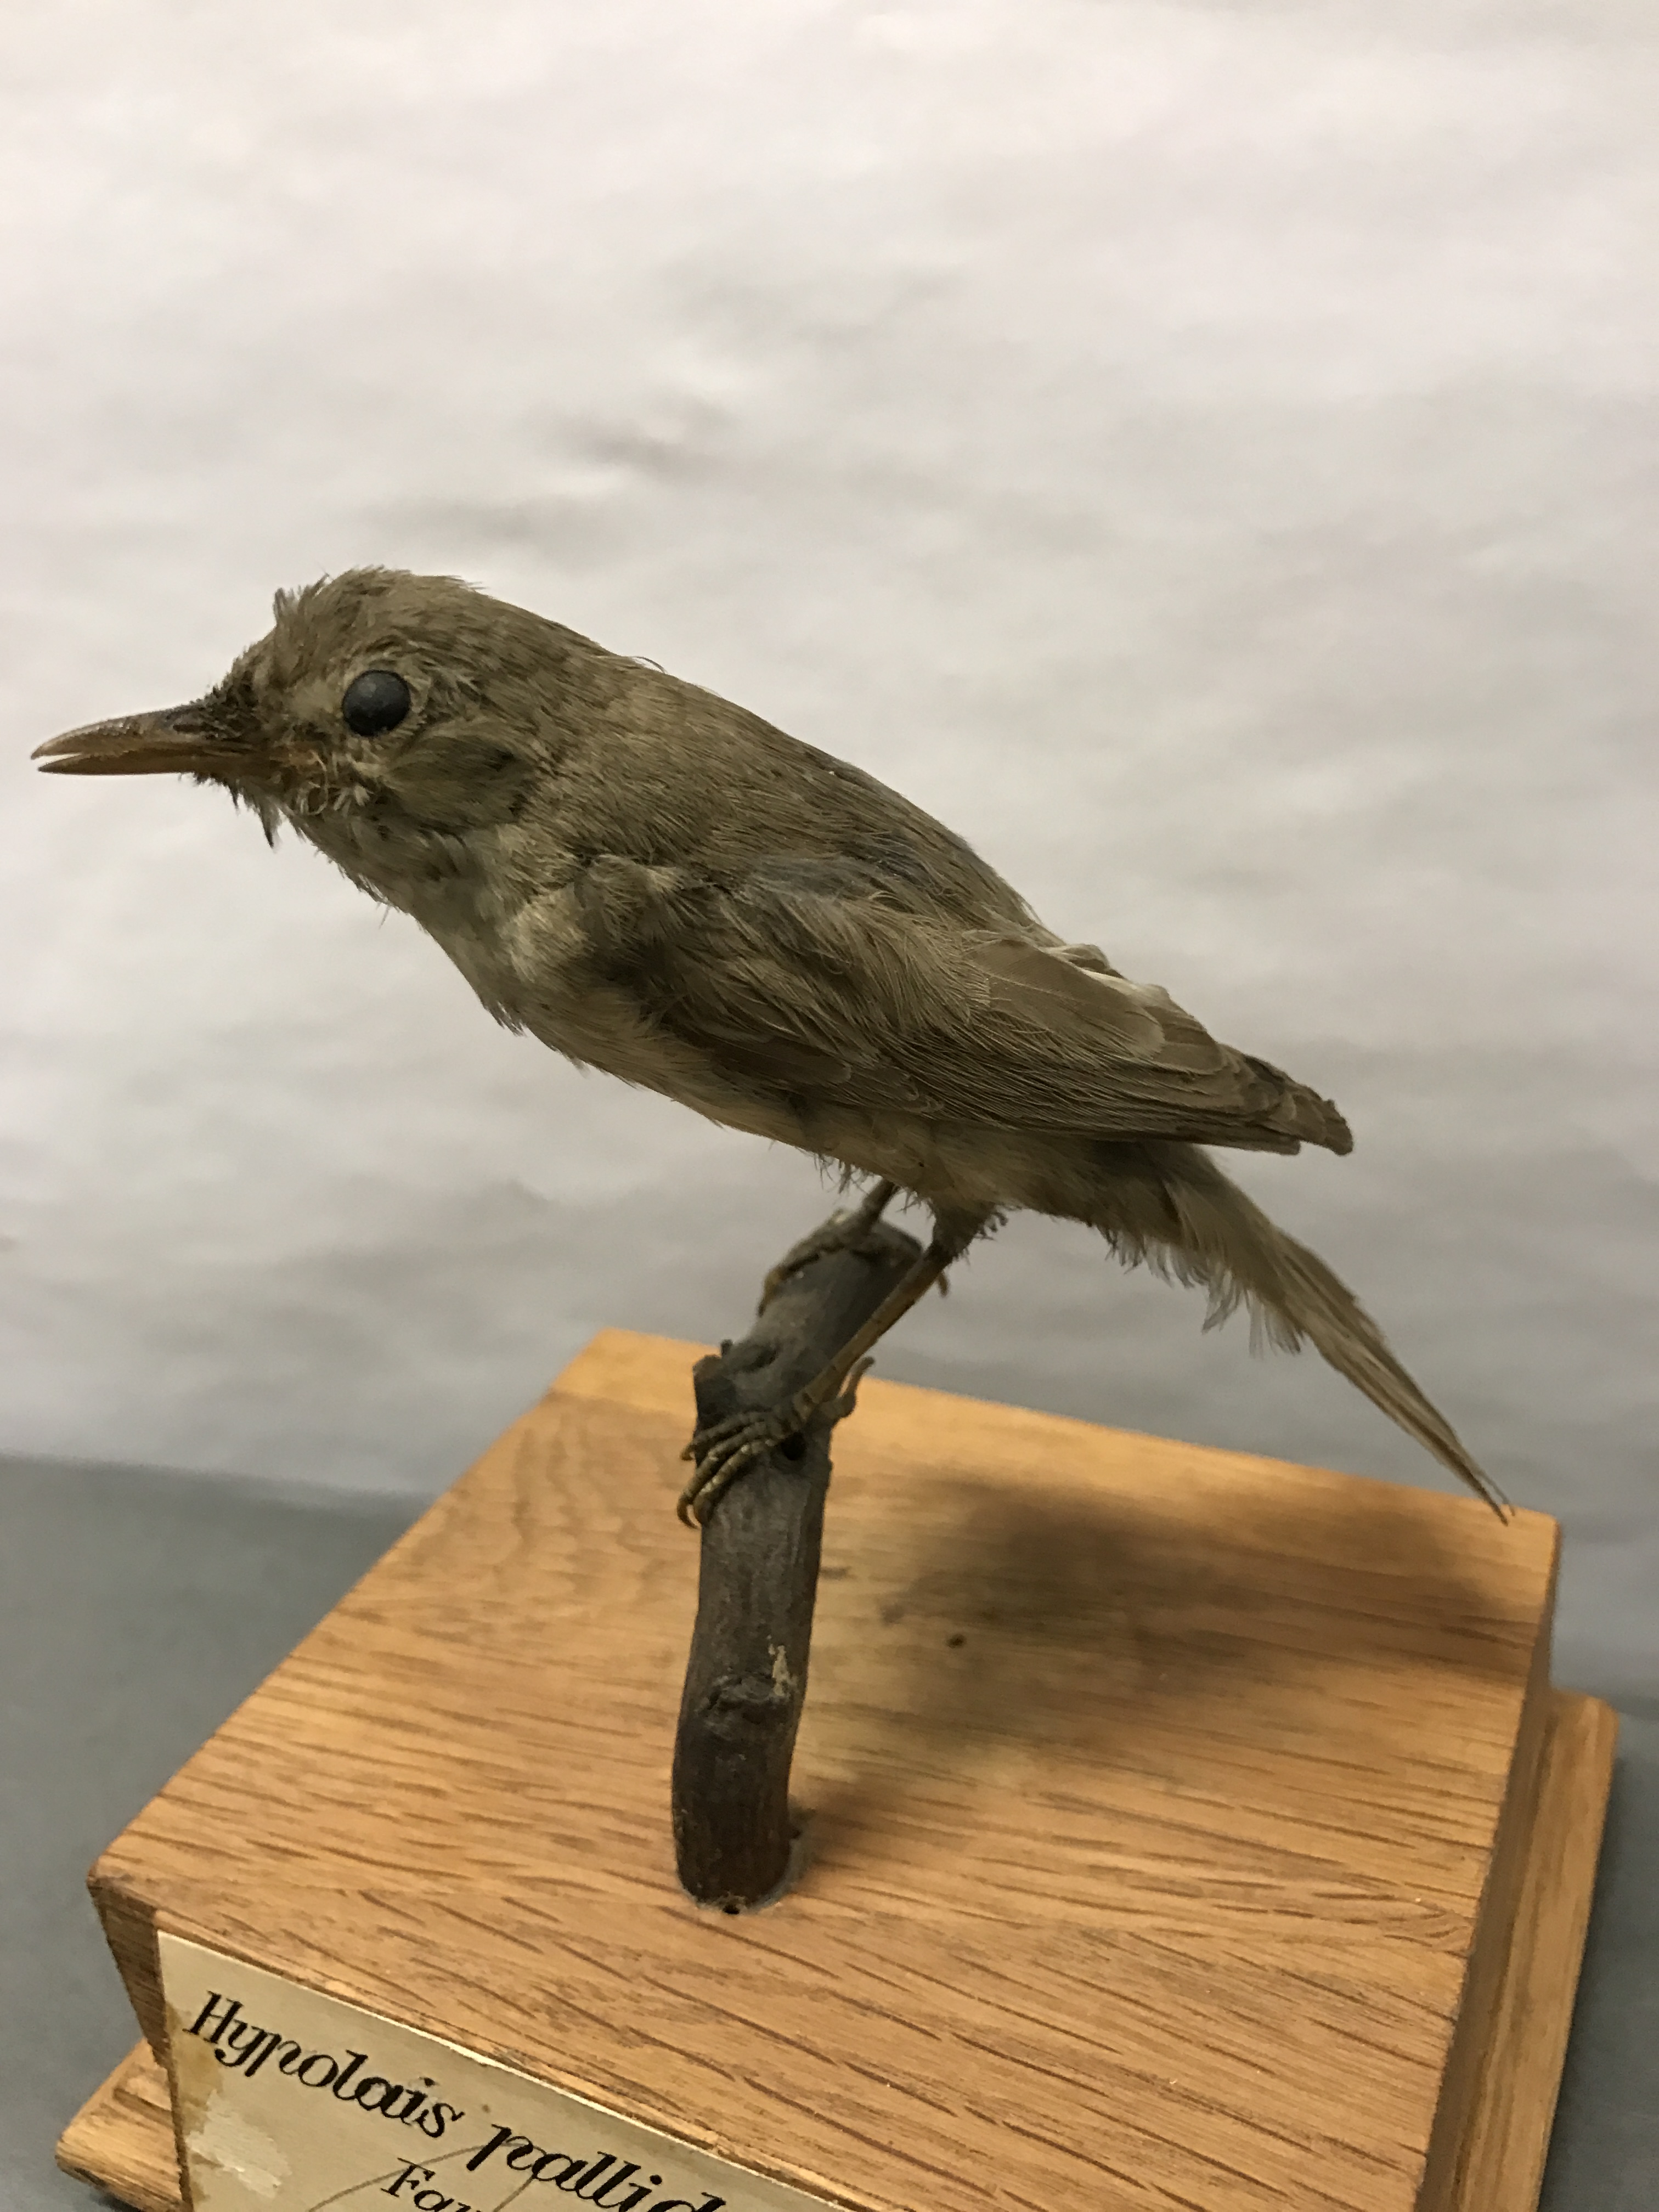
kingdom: Animalia
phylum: Chordata
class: Aves
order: Passeriformes
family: Acrocephalidae
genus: Iduna
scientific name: Iduna pallida
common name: Eastern olivaceous warbler
